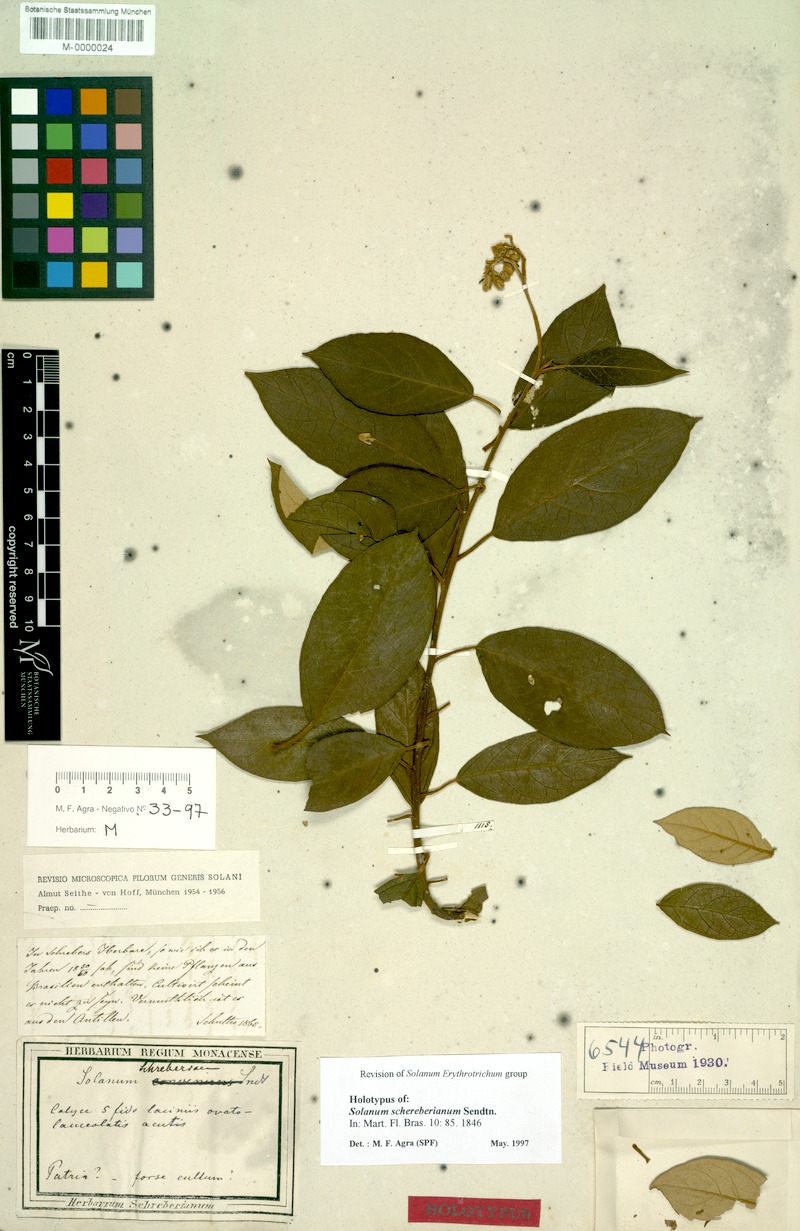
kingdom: Plantae
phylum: Tracheophyta
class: Magnoliopsida
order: Solanales
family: Solanaceae
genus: Solanum
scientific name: Solanum schreberianum
